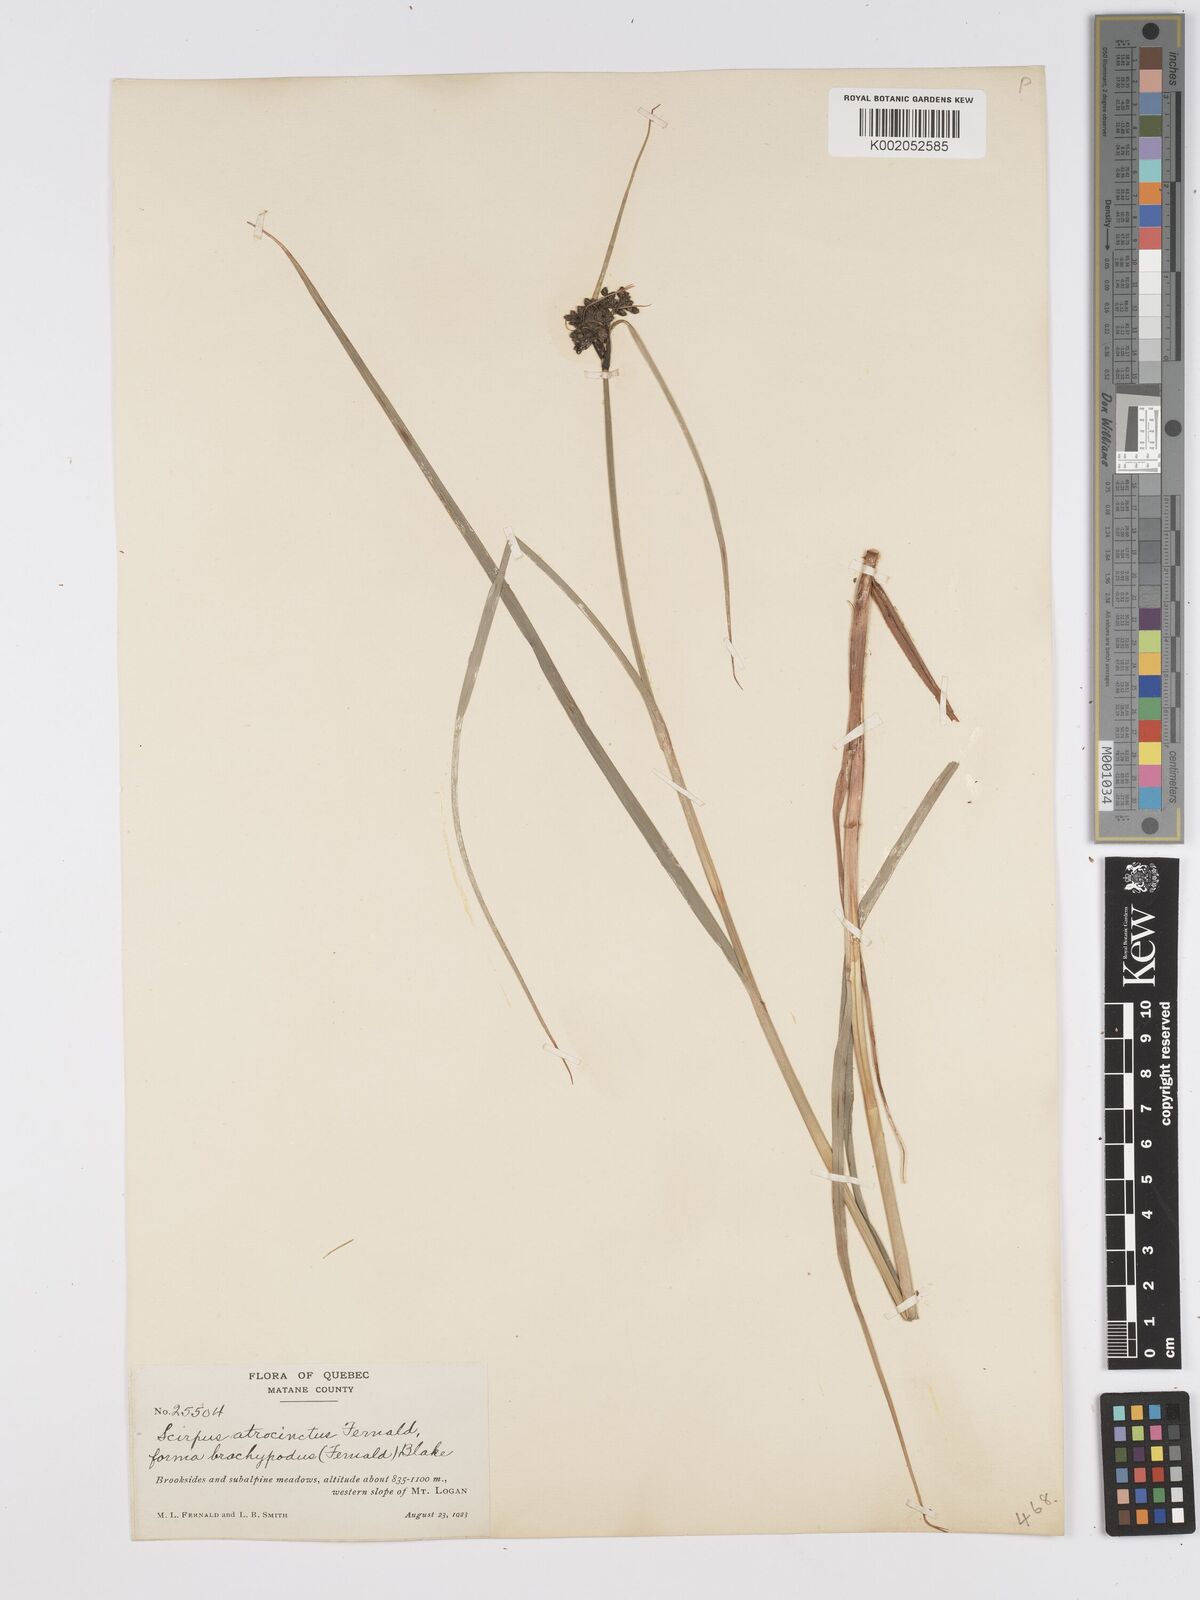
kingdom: Plantae
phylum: Tracheophyta
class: Liliopsida
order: Poales
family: Cyperaceae
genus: Scirpus
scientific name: Scirpus atrocinctus
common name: Black-girdled bulrush
